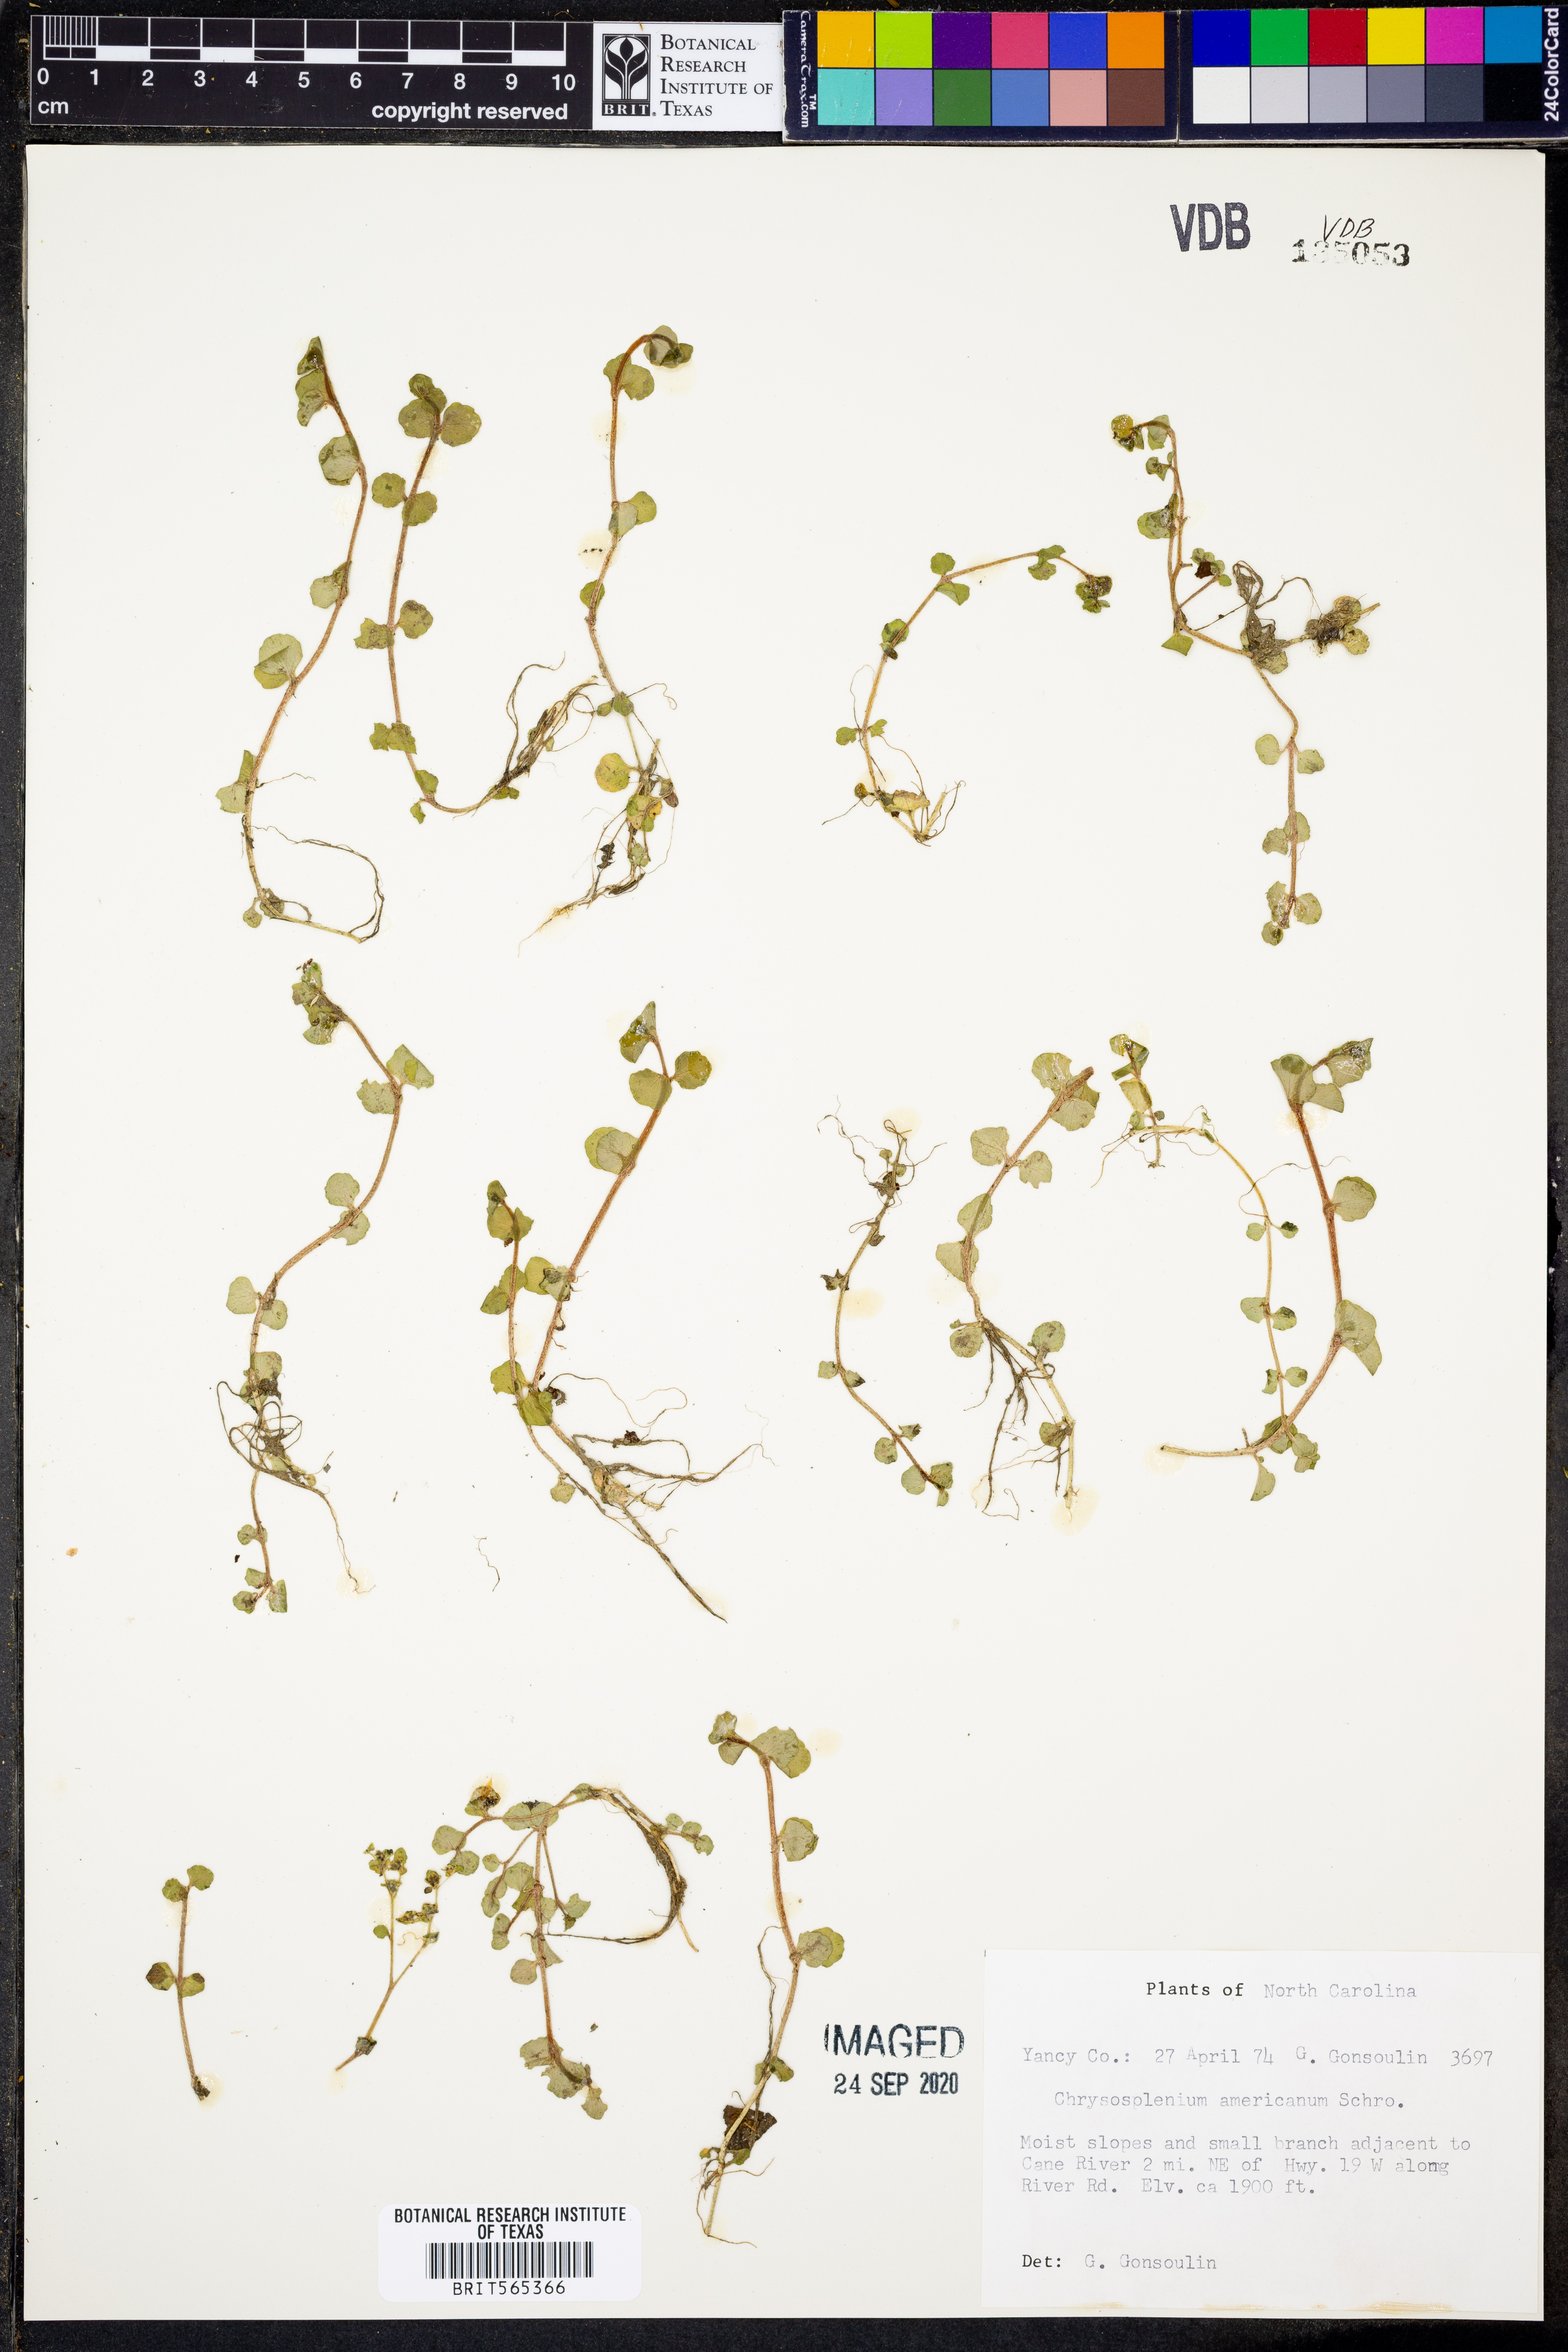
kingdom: Plantae
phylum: Tracheophyta
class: Magnoliopsida
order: Saxifragales
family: Saxifragaceae
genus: Chrysosplenium
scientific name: Chrysosplenium americanum
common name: American golden-saxifrage
